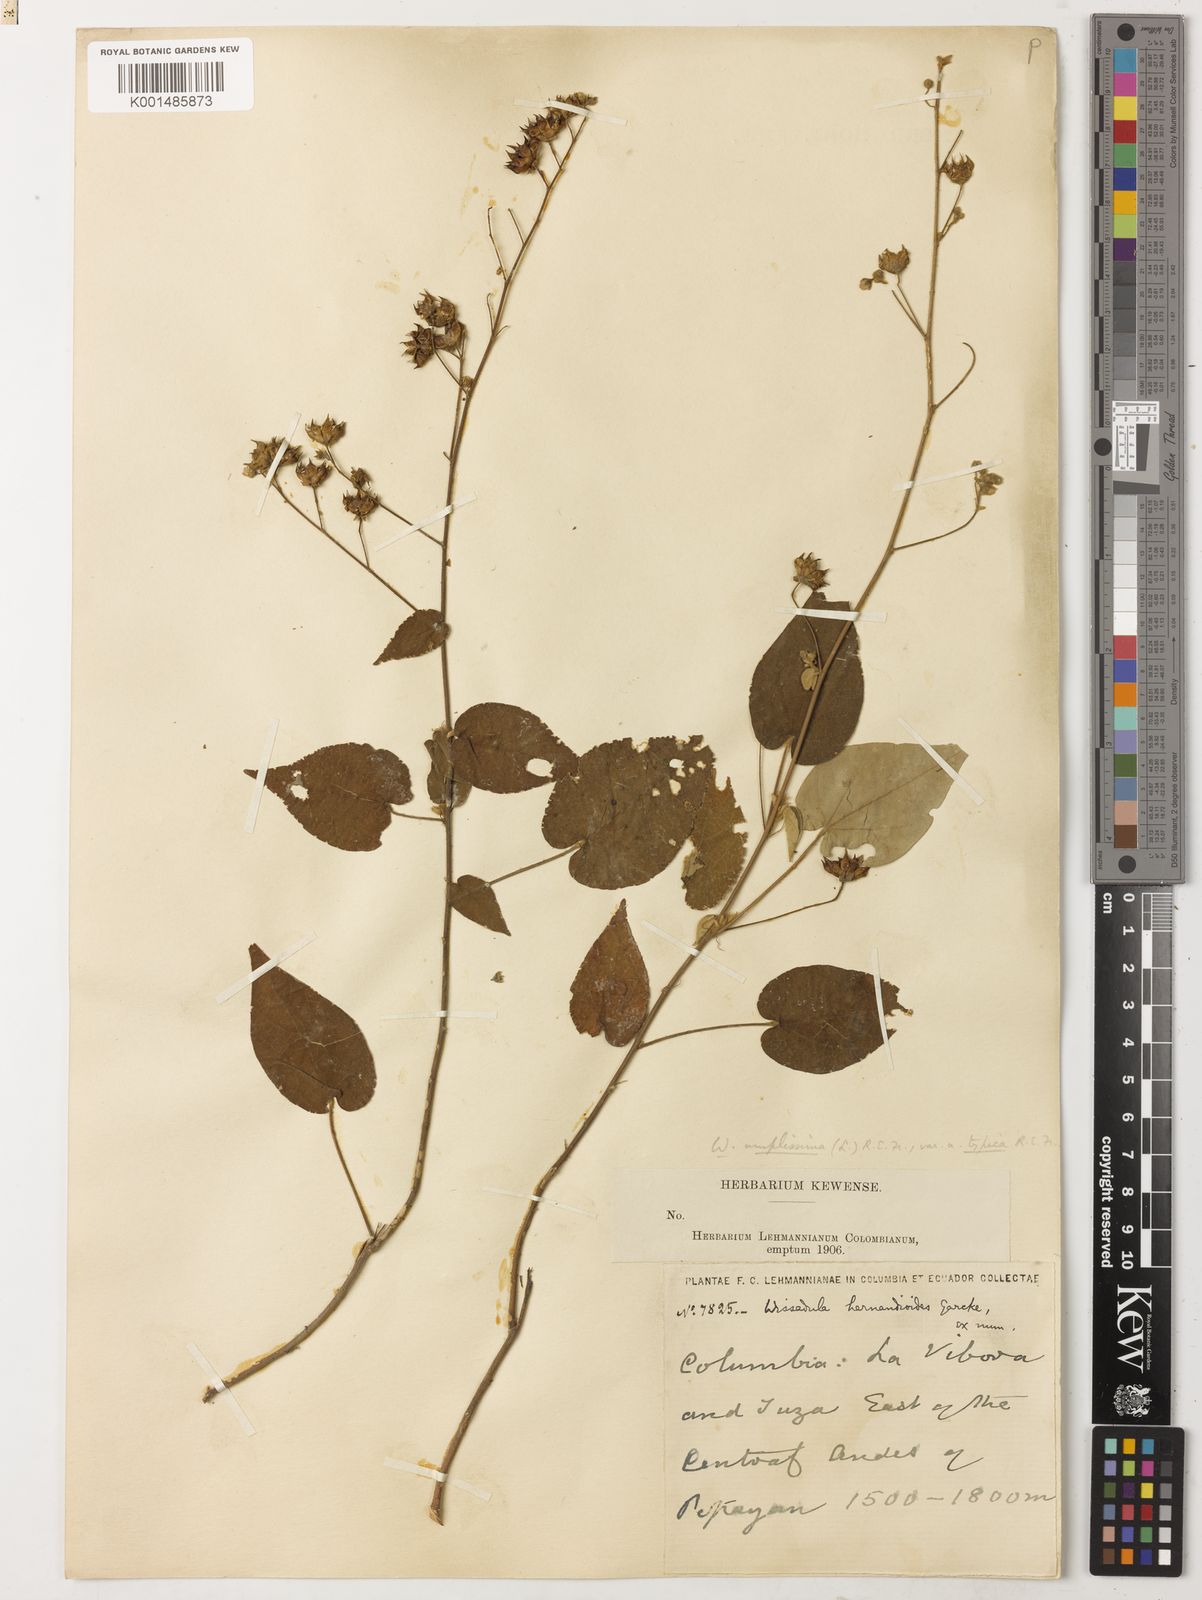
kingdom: Plantae
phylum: Tracheophyta
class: Magnoliopsida
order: Malvales
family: Malvaceae
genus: Wissadula
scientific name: Wissadula amplissima
